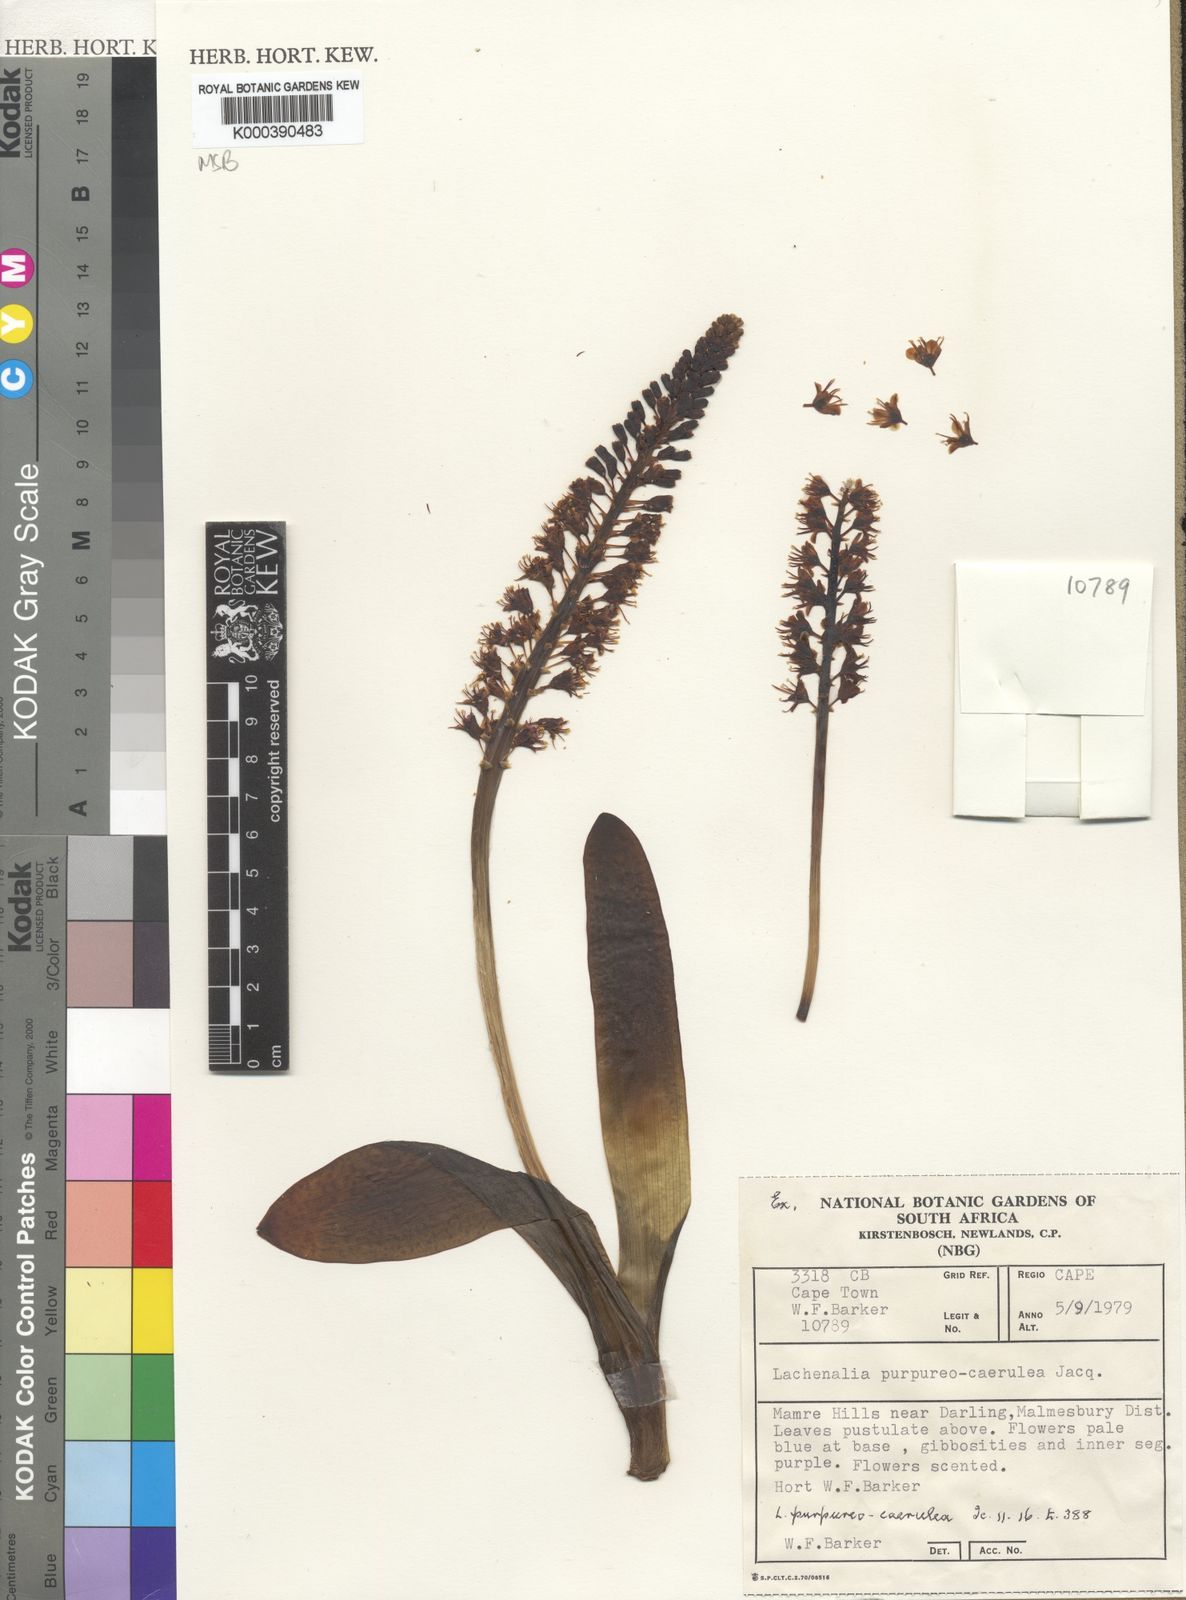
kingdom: Plantae
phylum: Tracheophyta
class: Liliopsida
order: Asparagales
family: Asparagaceae
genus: Lachenalia
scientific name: Lachenalia purpureocaerulea
